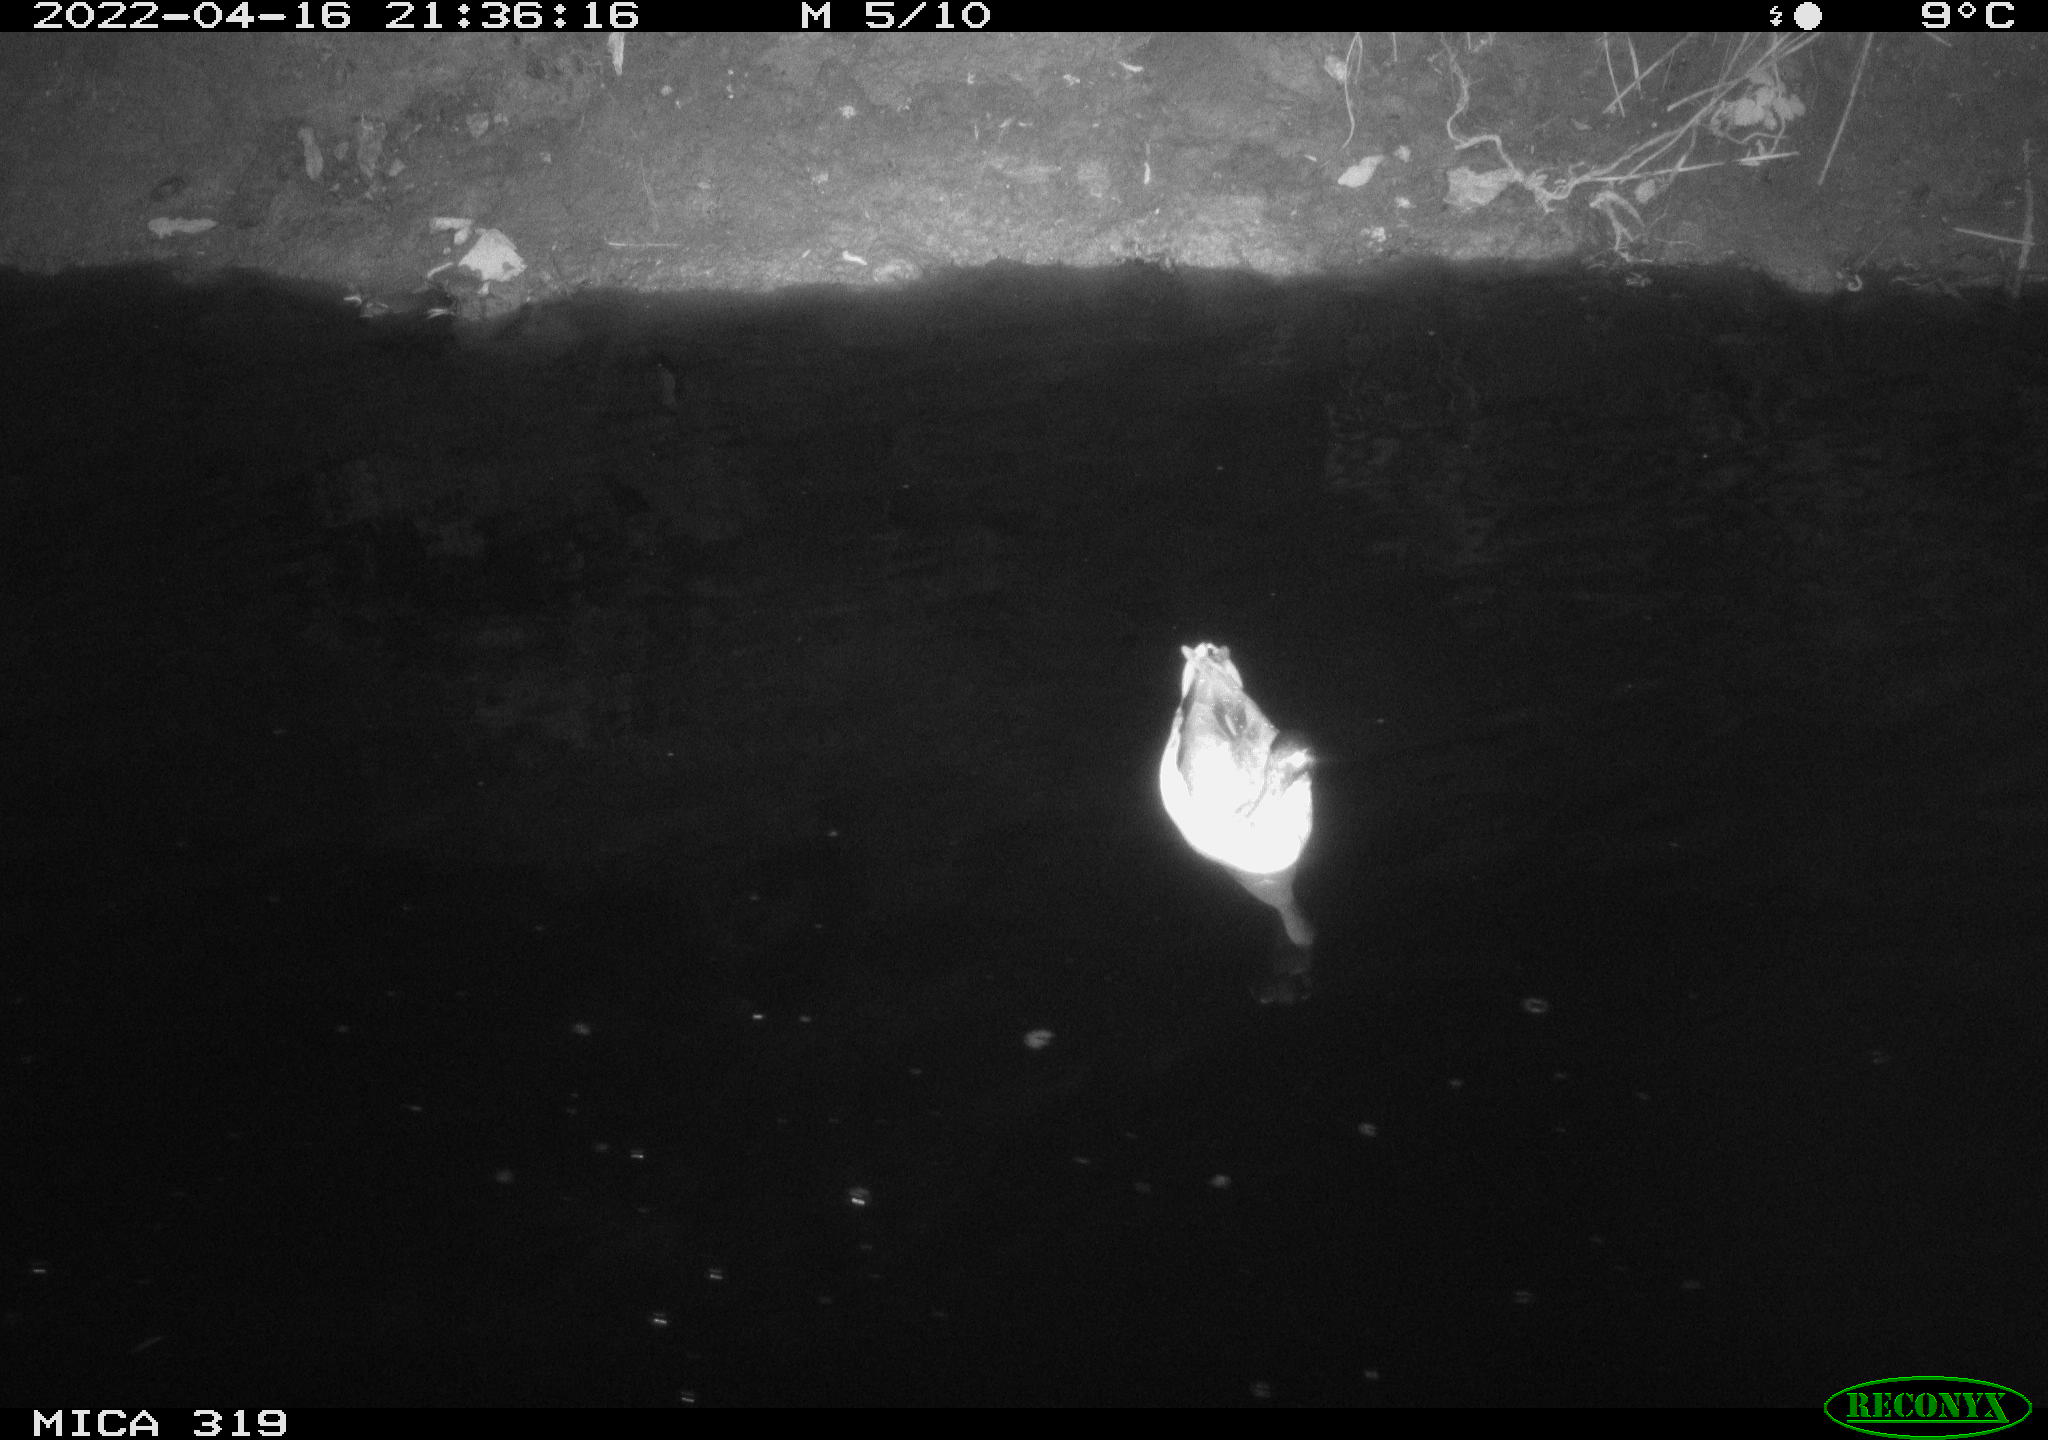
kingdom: Animalia
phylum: Chordata
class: Aves
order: Anseriformes
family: Anatidae
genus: Anas
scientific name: Anas platyrhynchos
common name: Mallard
